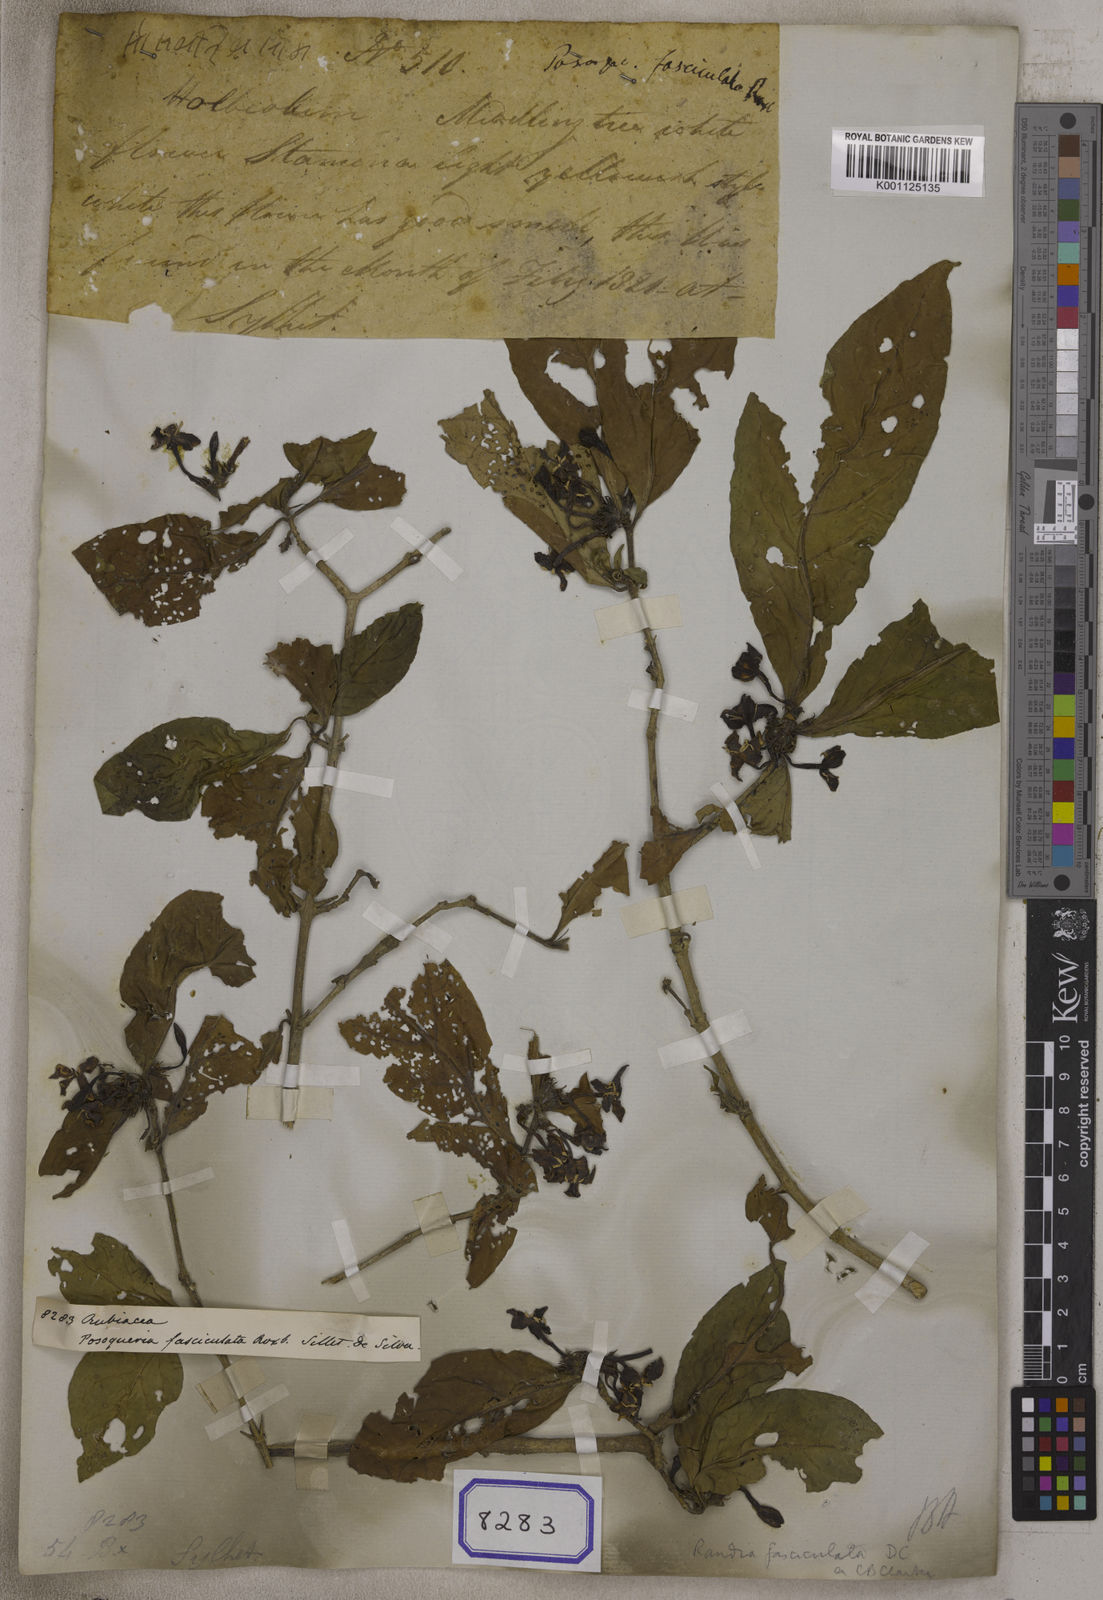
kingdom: Plantae
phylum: Tracheophyta
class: Magnoliopsida
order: Gentianales
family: Rubiaceae
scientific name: Rubiaceae
